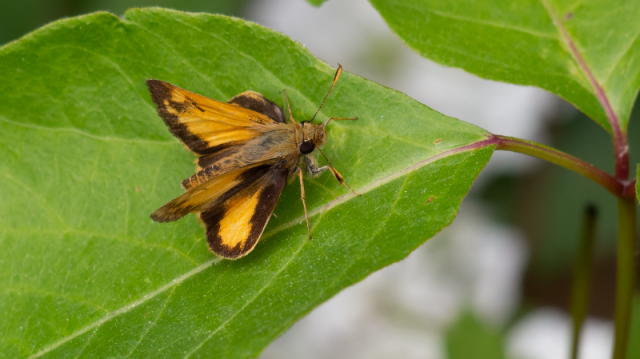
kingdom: Animalia
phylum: Arthropoda
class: Insecta
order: Lepidoptera
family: Hesperiidae
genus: Lon
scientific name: Lon zabulon
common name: Zabulon Skipper
